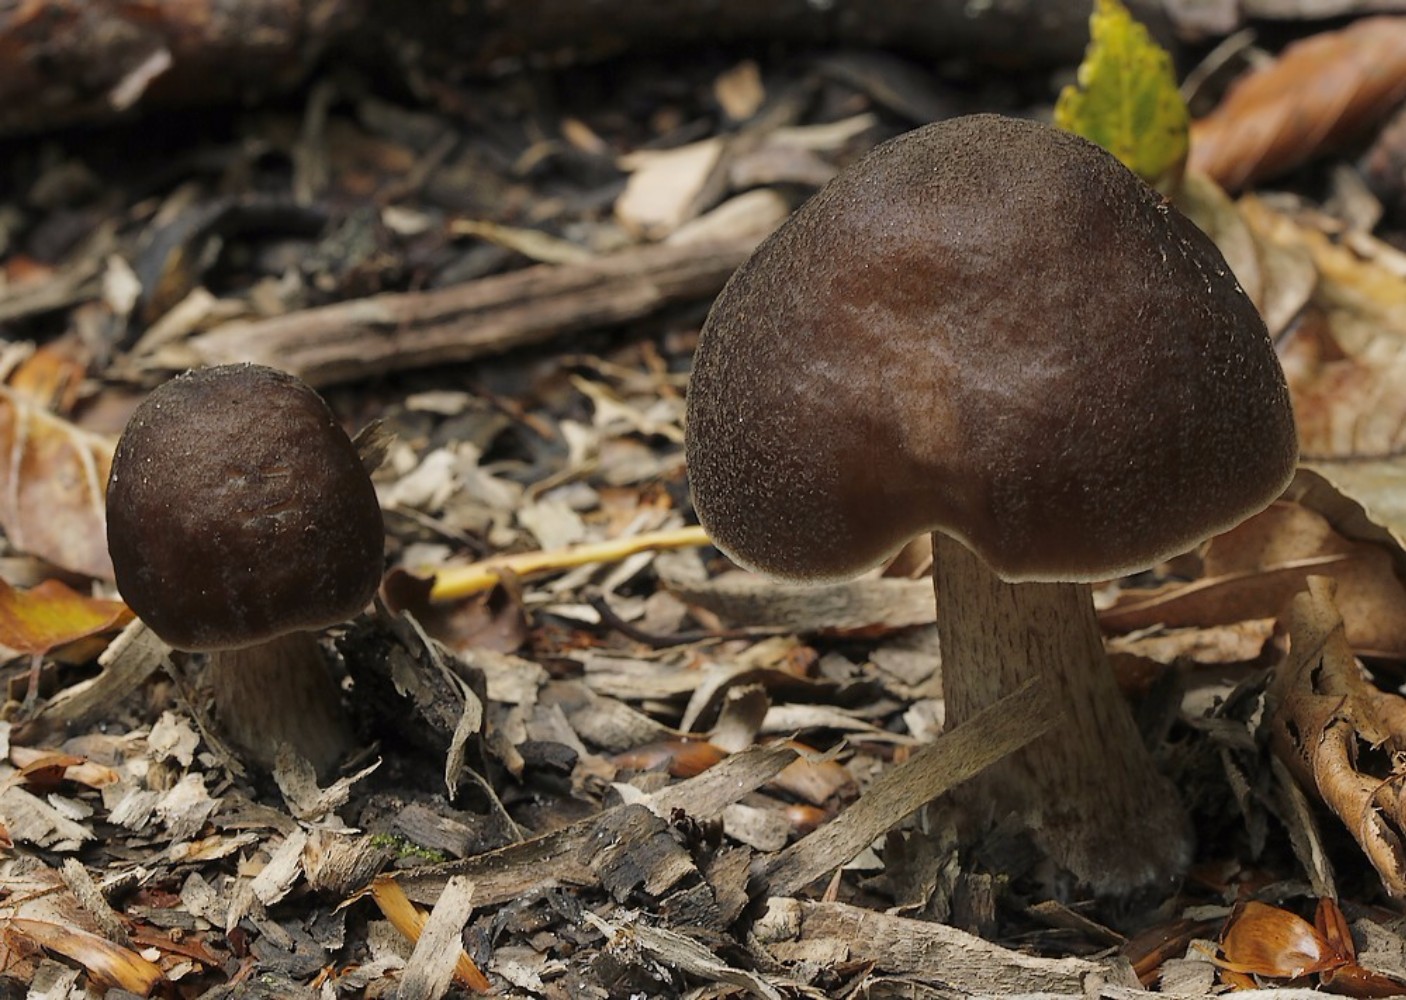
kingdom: Fungi
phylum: Basidiomycota
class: Agaricomycetes
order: Agaricales
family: Pluteaceae
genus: Pluteus
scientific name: Pluteus cervinus
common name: sodfarvet skærmhat
